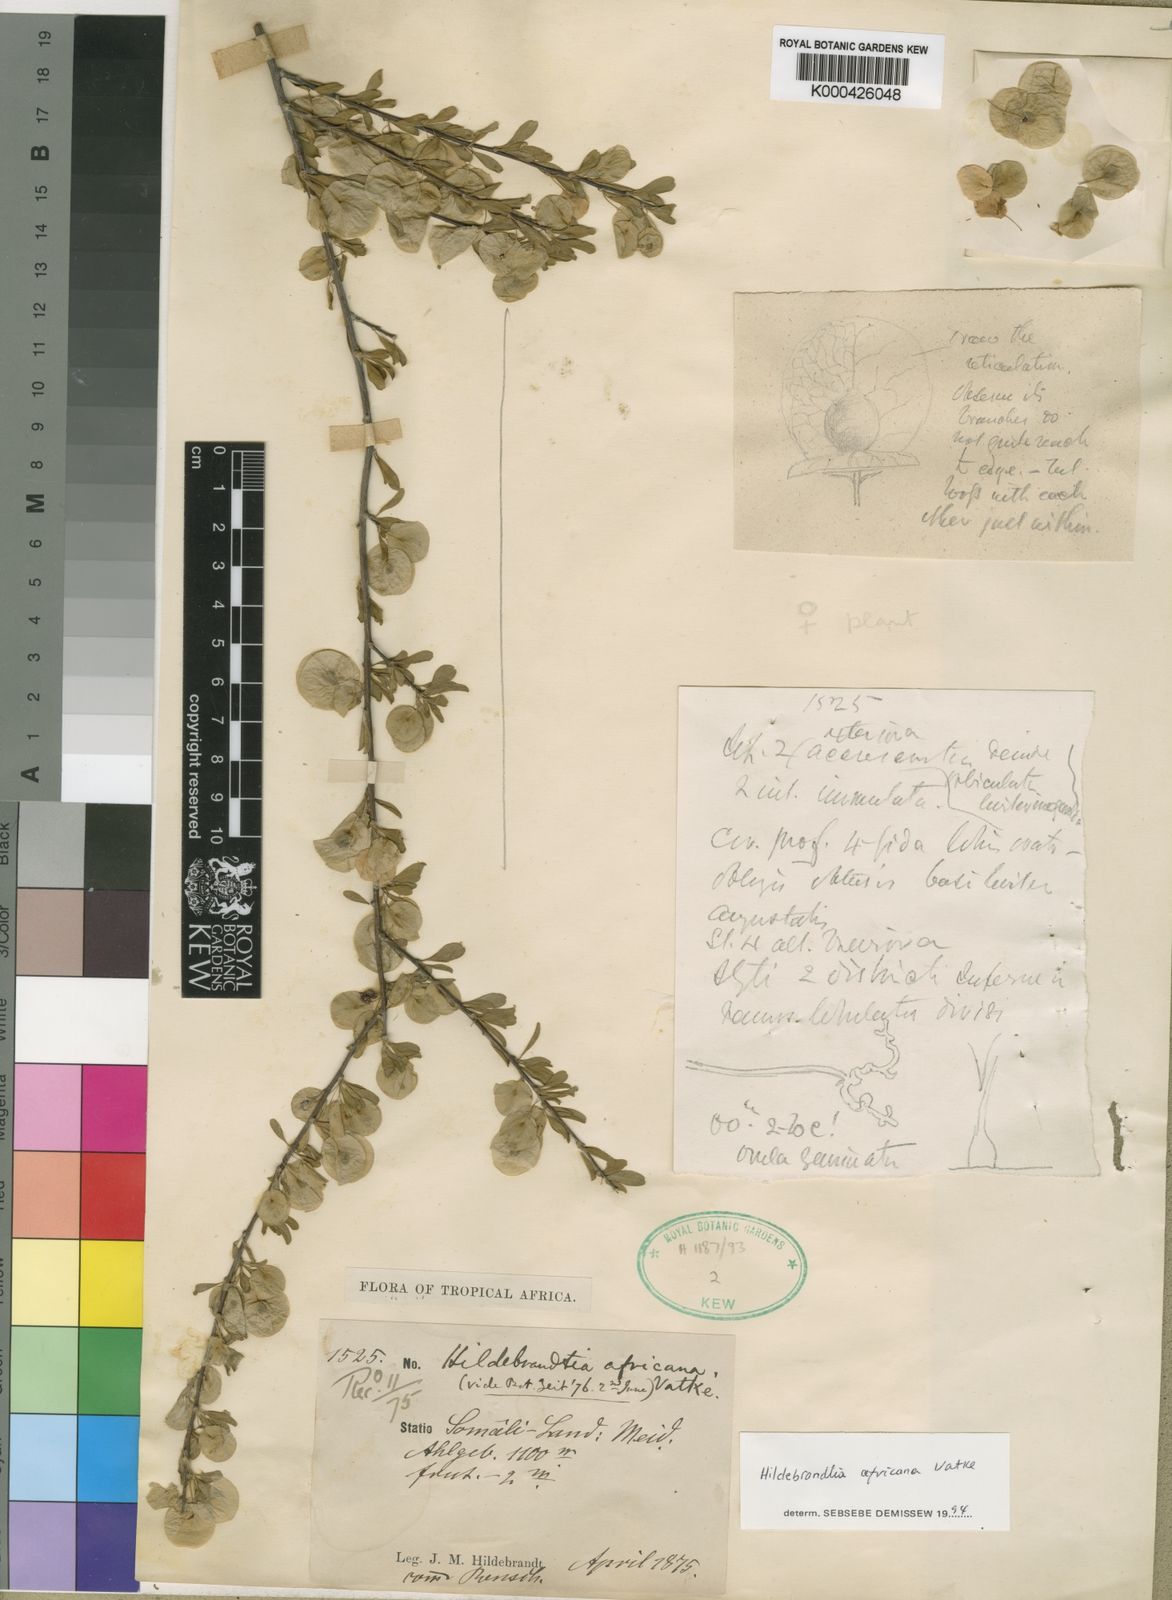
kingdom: Plantae
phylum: Tracheophyta
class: Magnoliopsida
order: Solanales
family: Convolvulaceae
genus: Hildebrandtia
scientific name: Hildebrandtia africana
